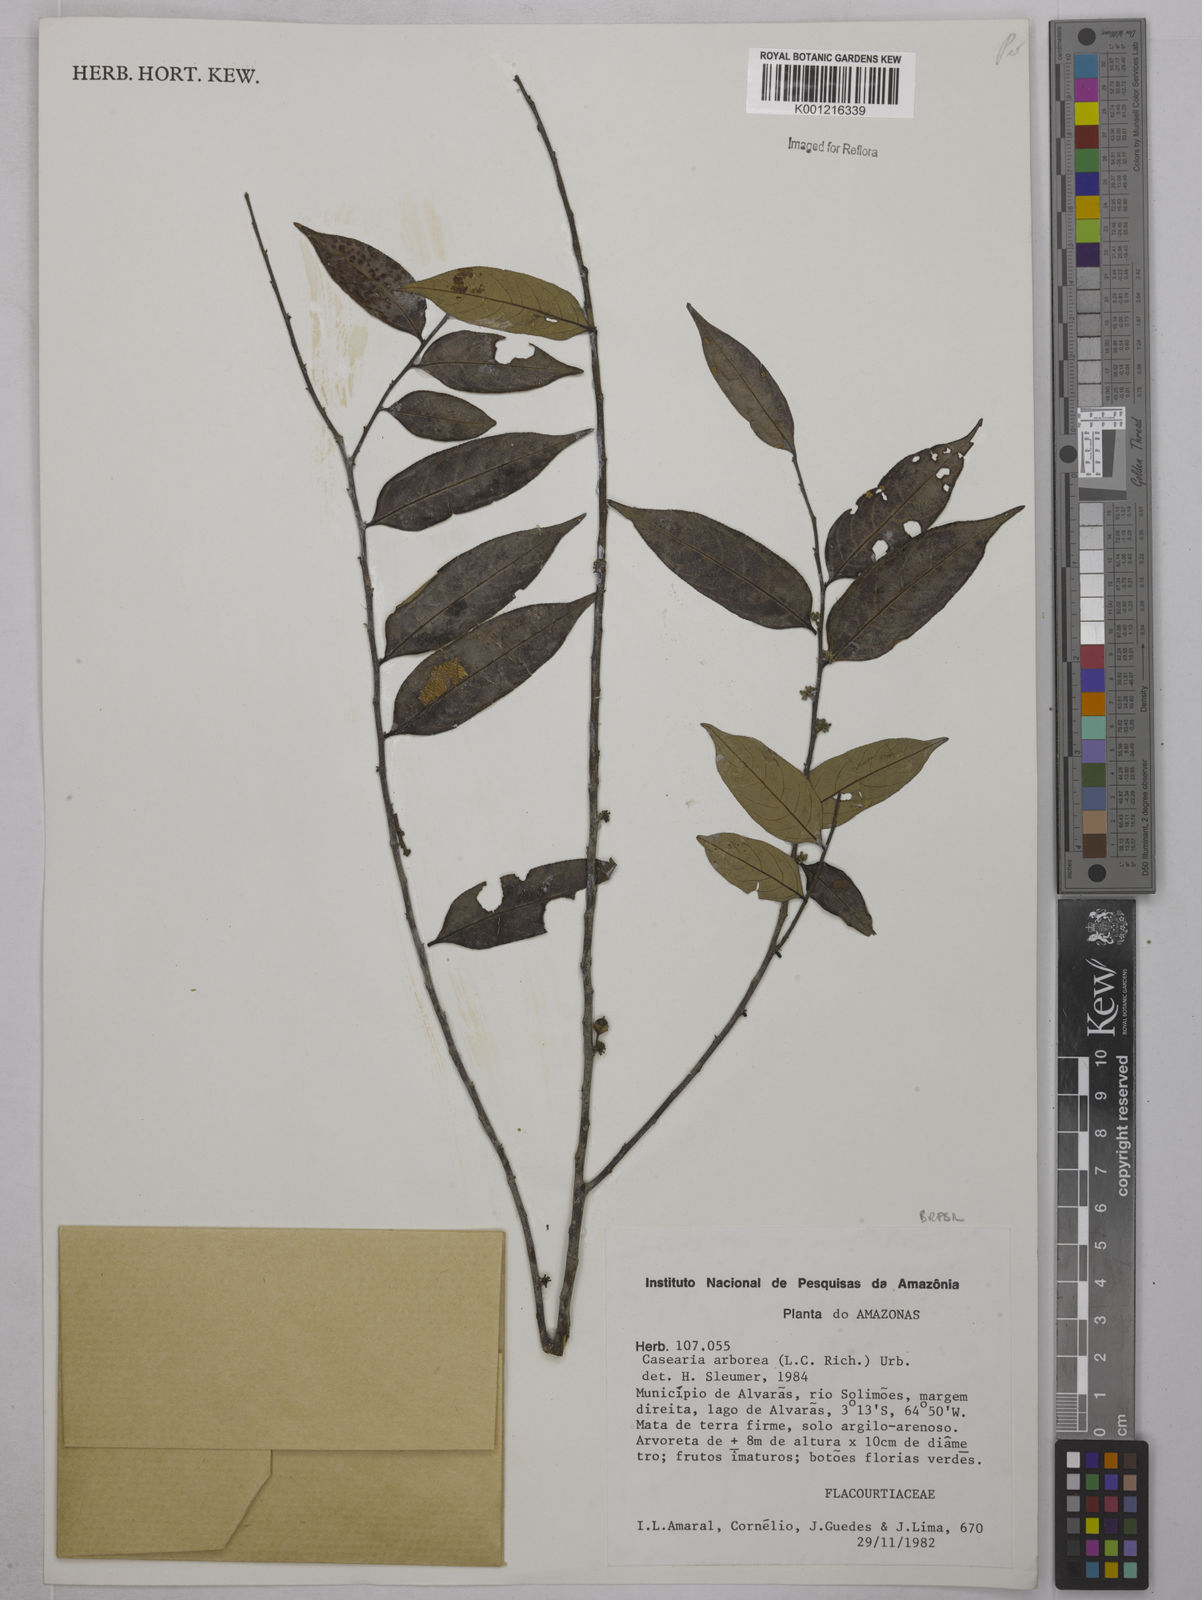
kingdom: Plantae
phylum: Tracheophyta
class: Magnoliopsida
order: Malpighiales
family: Salicaceae
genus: Casearia
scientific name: Casearia arborea
